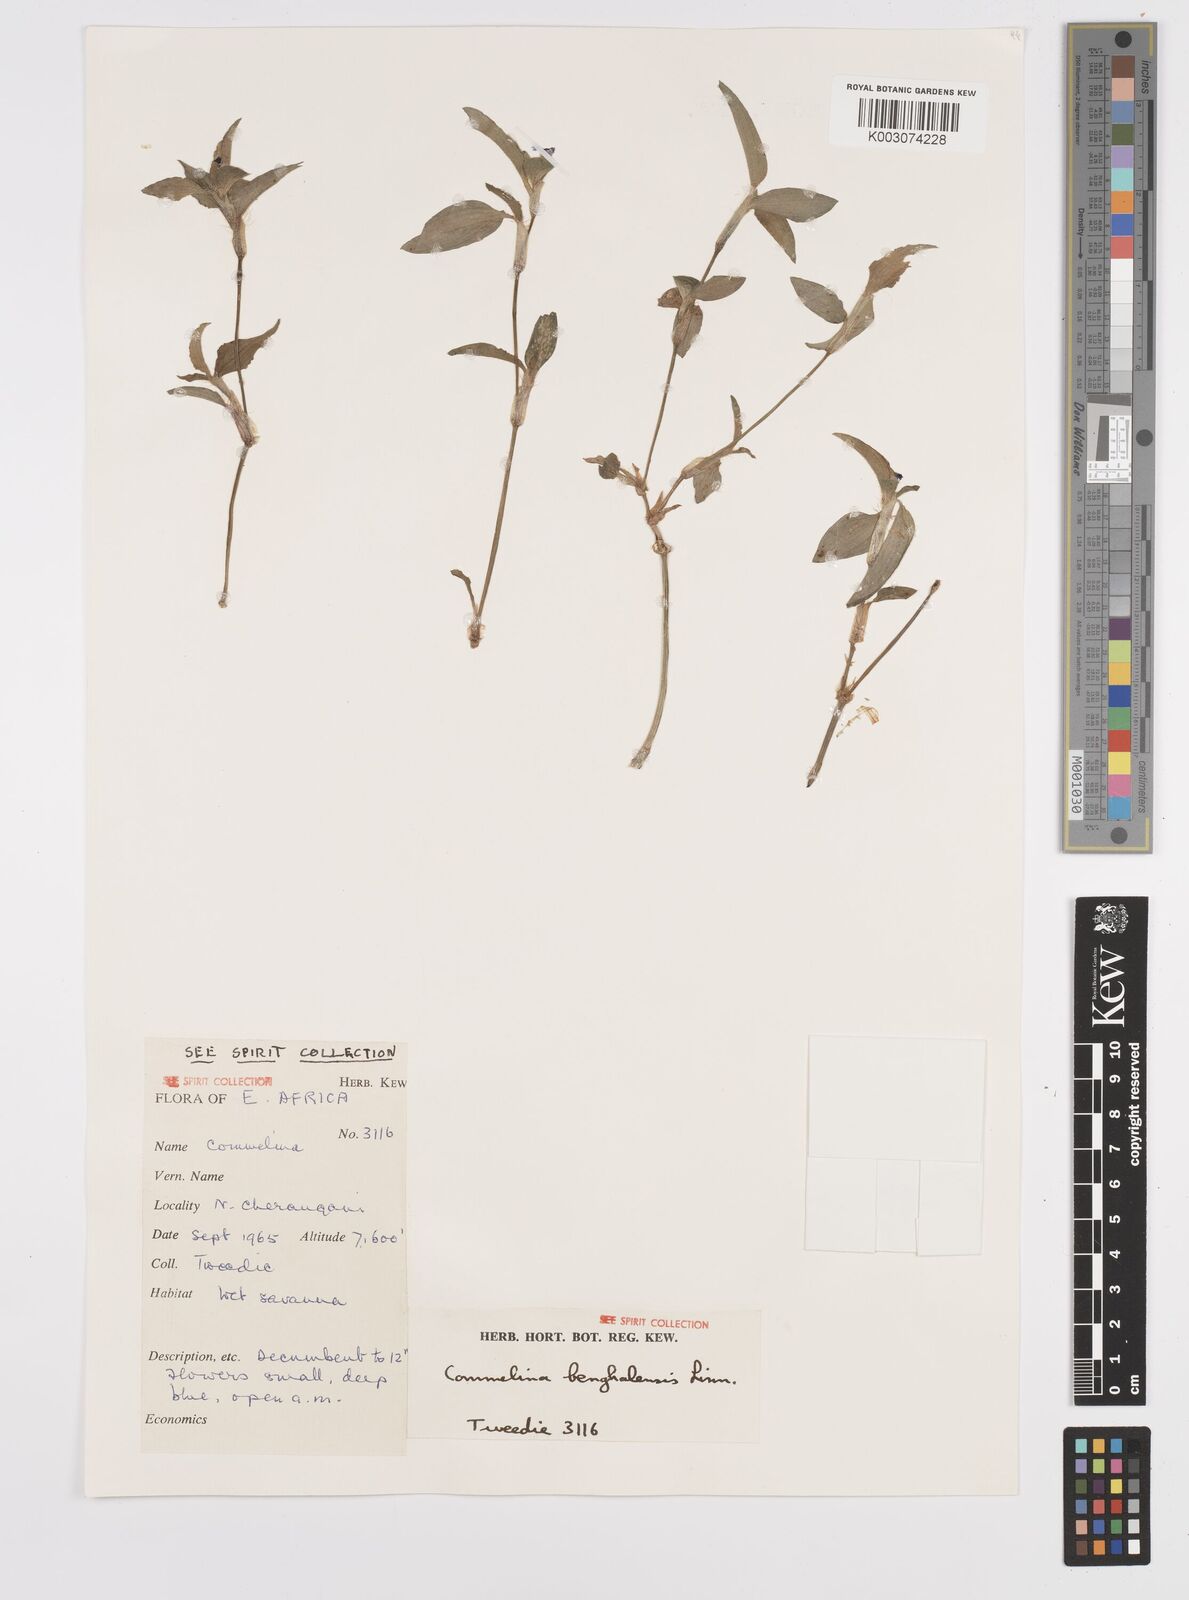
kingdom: Plantae
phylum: Tracheophyta
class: Liliopsida
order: Commelinales
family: Commelinaceae
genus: Commelina
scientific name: Commelina benghalensis
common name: Jio
